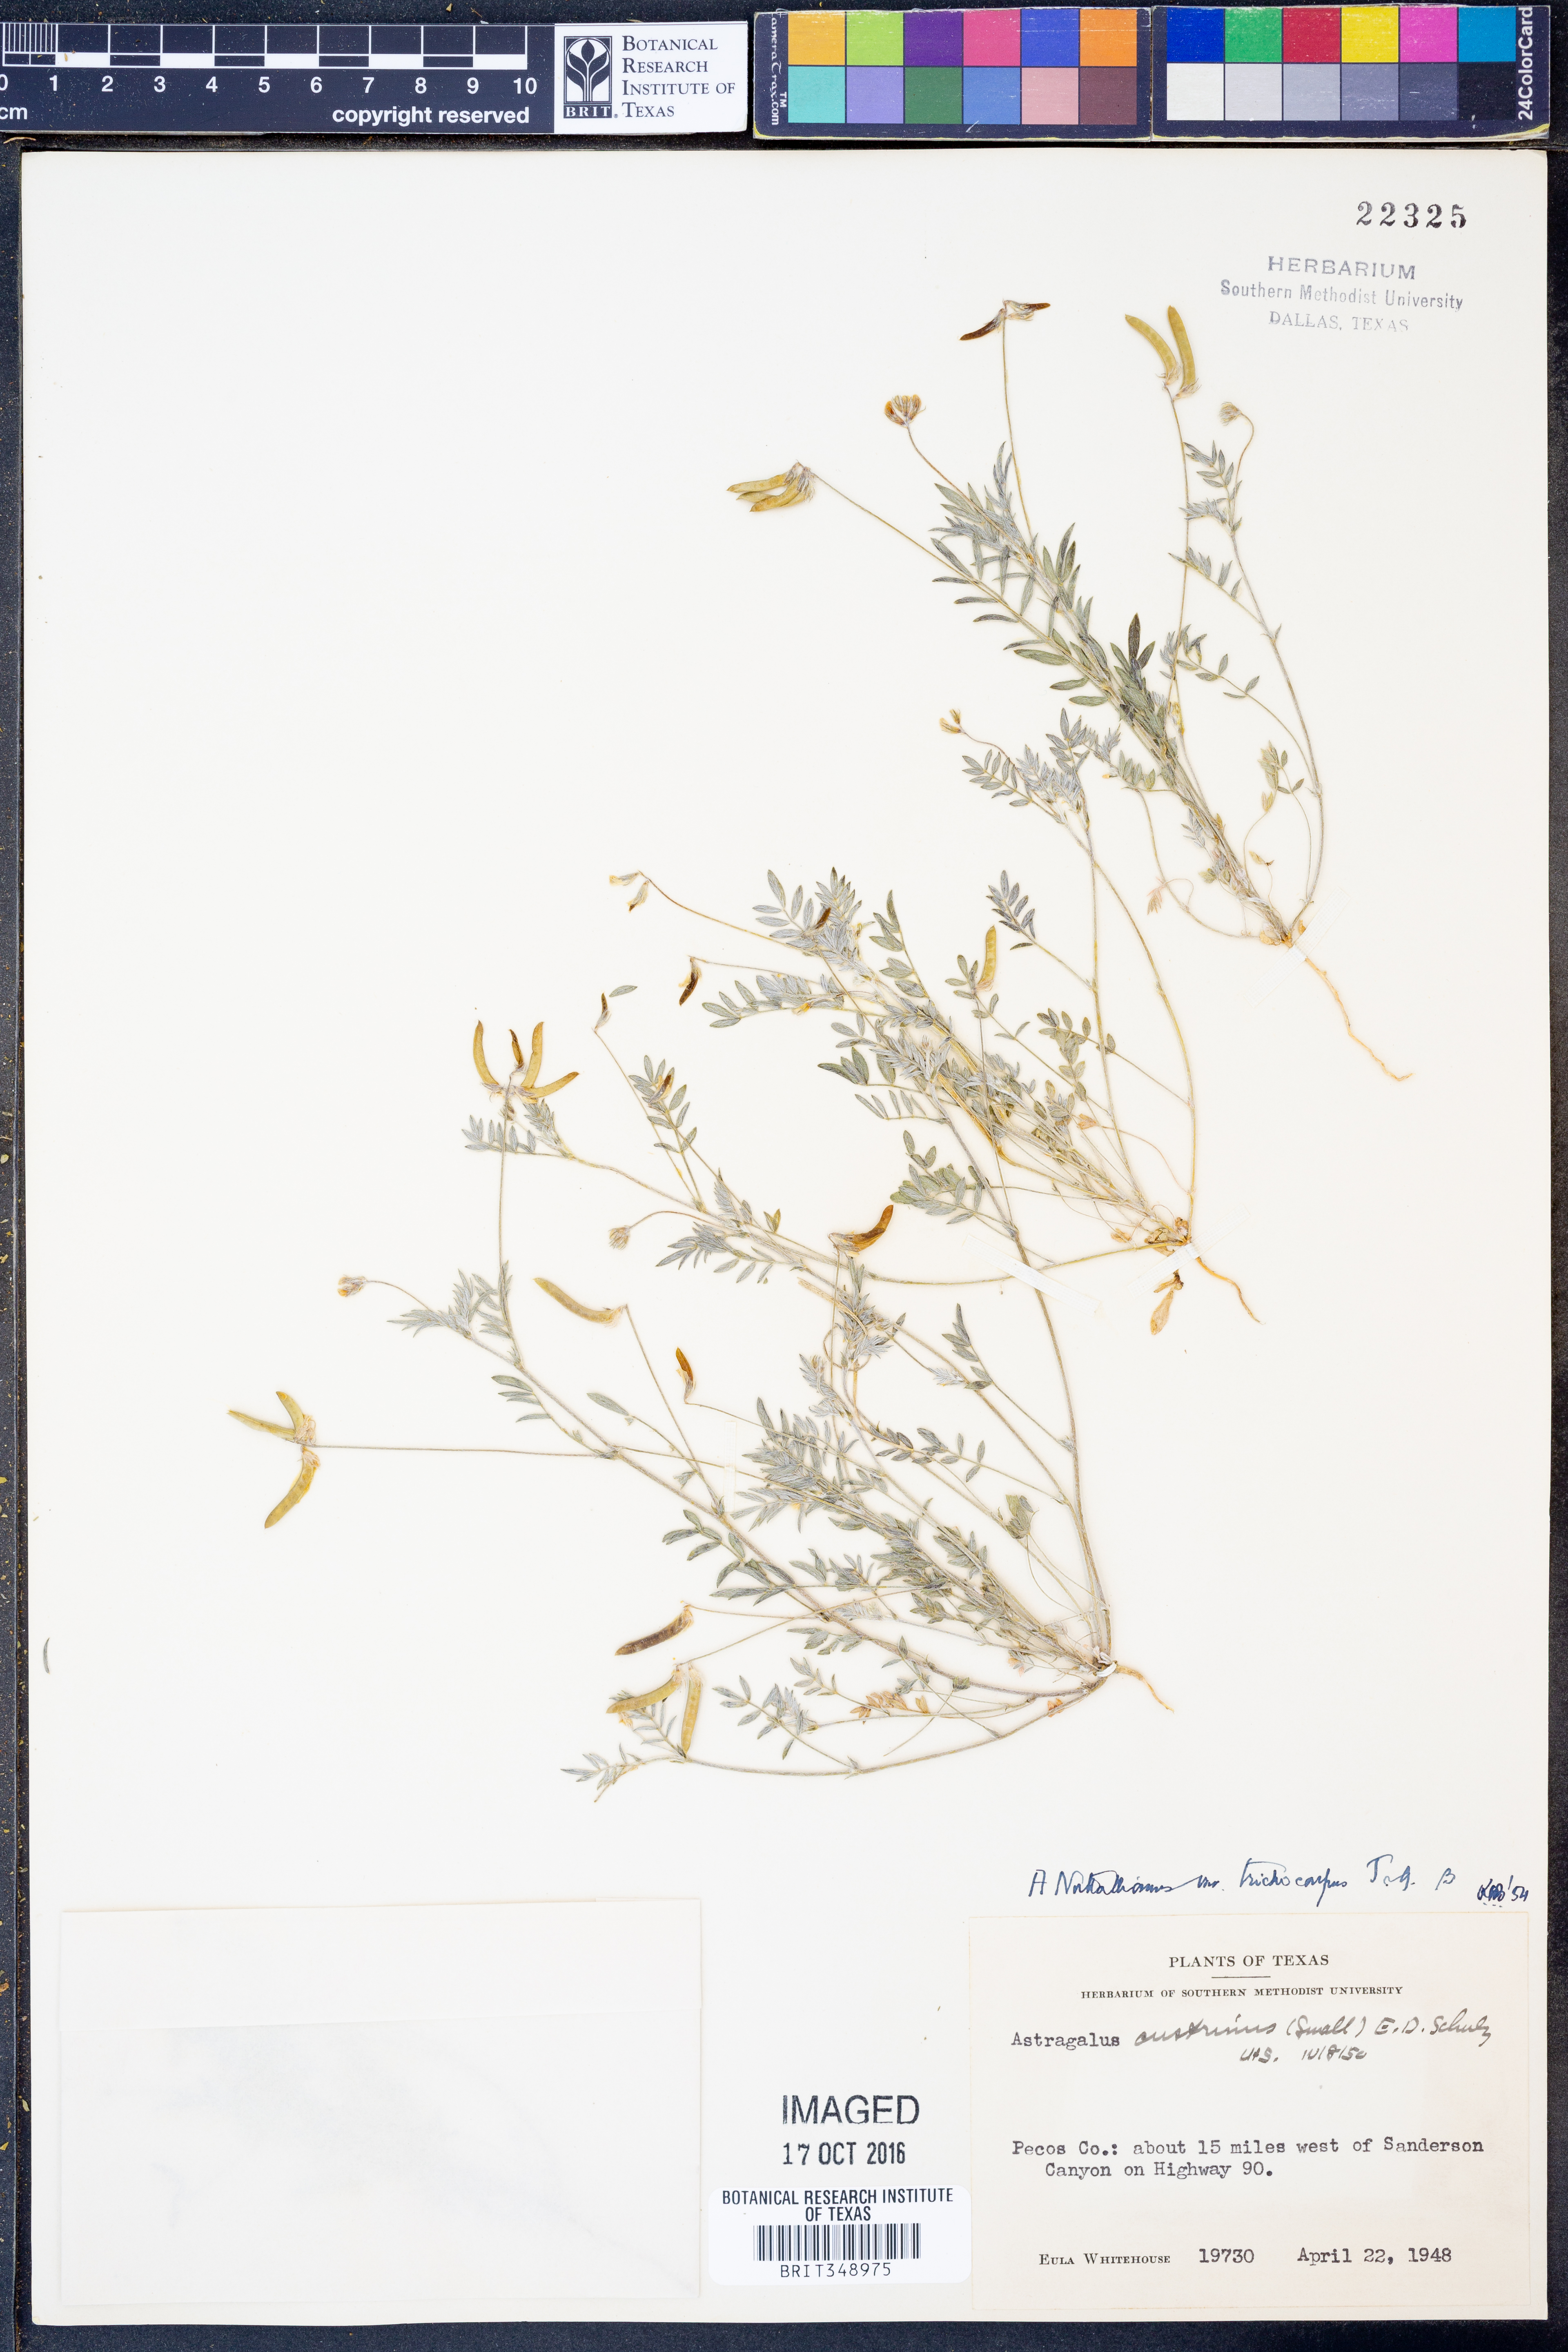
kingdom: Plantae
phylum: Tracheophyta
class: Magnoliopsida
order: Fabales
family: Fabaceae
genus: Astragalus
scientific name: Astragalus nuttallianus
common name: Smallflowered milkvetch
